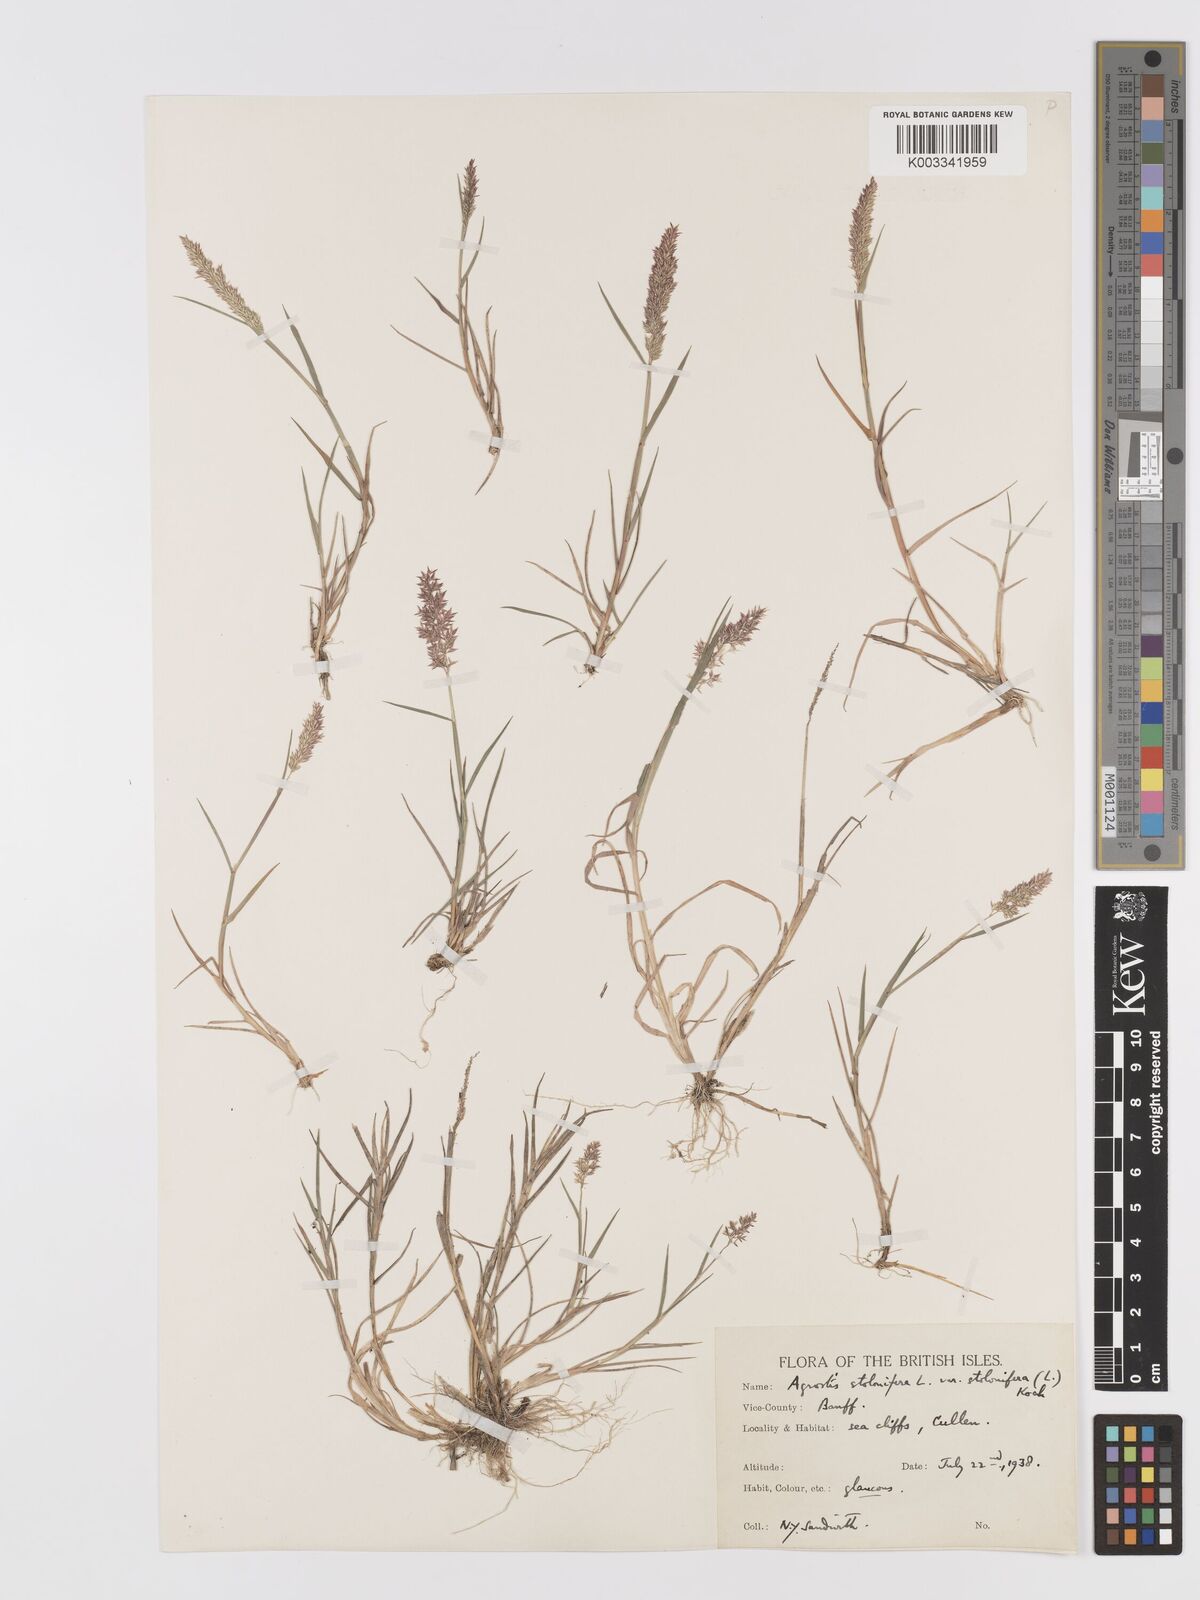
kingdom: Plantae
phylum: Tracheophyta
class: Liliopsida
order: Poales
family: Poaceae
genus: Agrostis
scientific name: Agrostis stolonifera
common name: Creeping bentgrass
